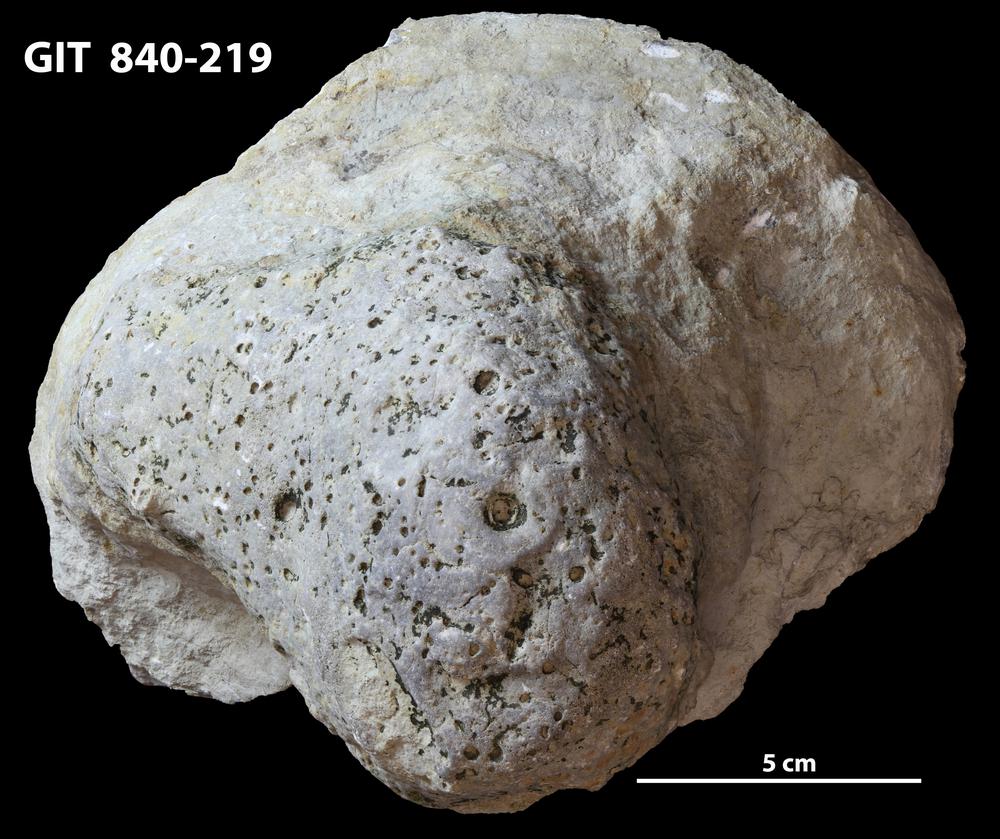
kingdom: Animalia
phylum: Cnidaria
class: Anthozoa
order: Heliolitina
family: Stelliporellidae
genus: Stelliporella
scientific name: Stelliporella
